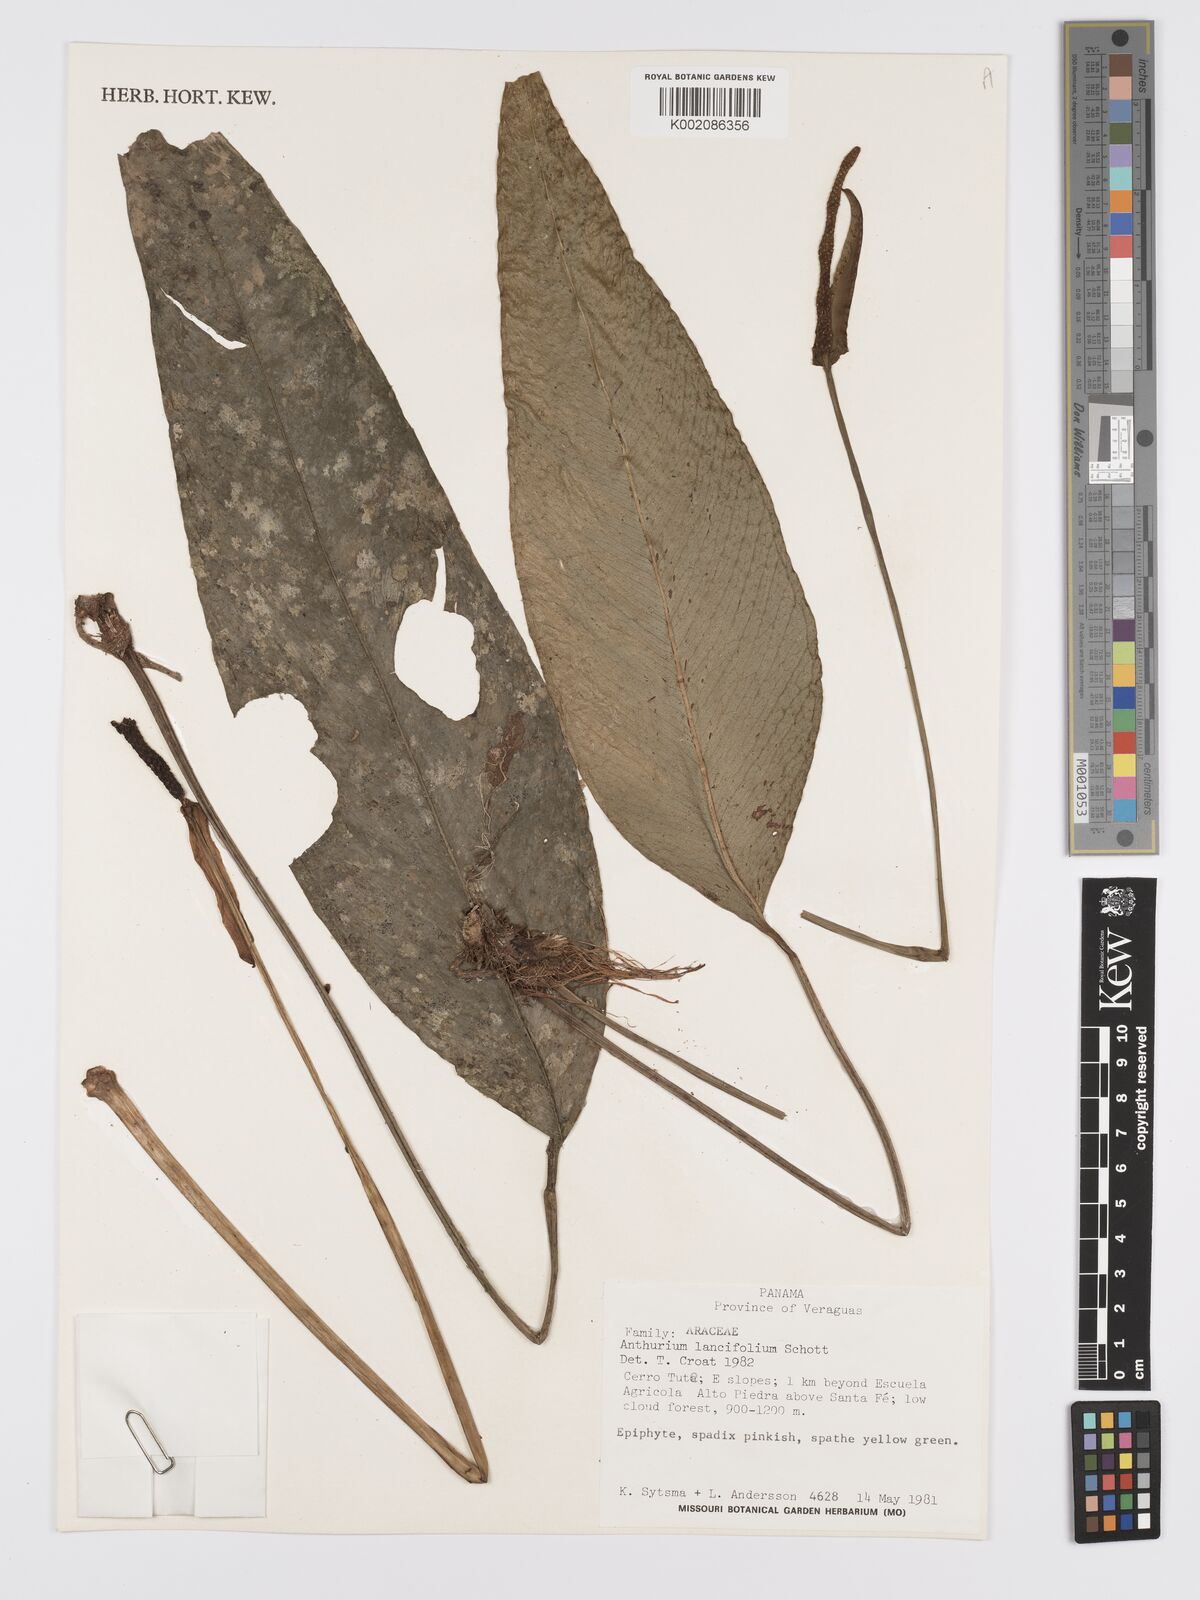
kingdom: Plantae
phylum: Tracheophyta
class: Liliopsida
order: Alismatales
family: Araceae
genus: Anthurium
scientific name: Anthurium lancifolium
